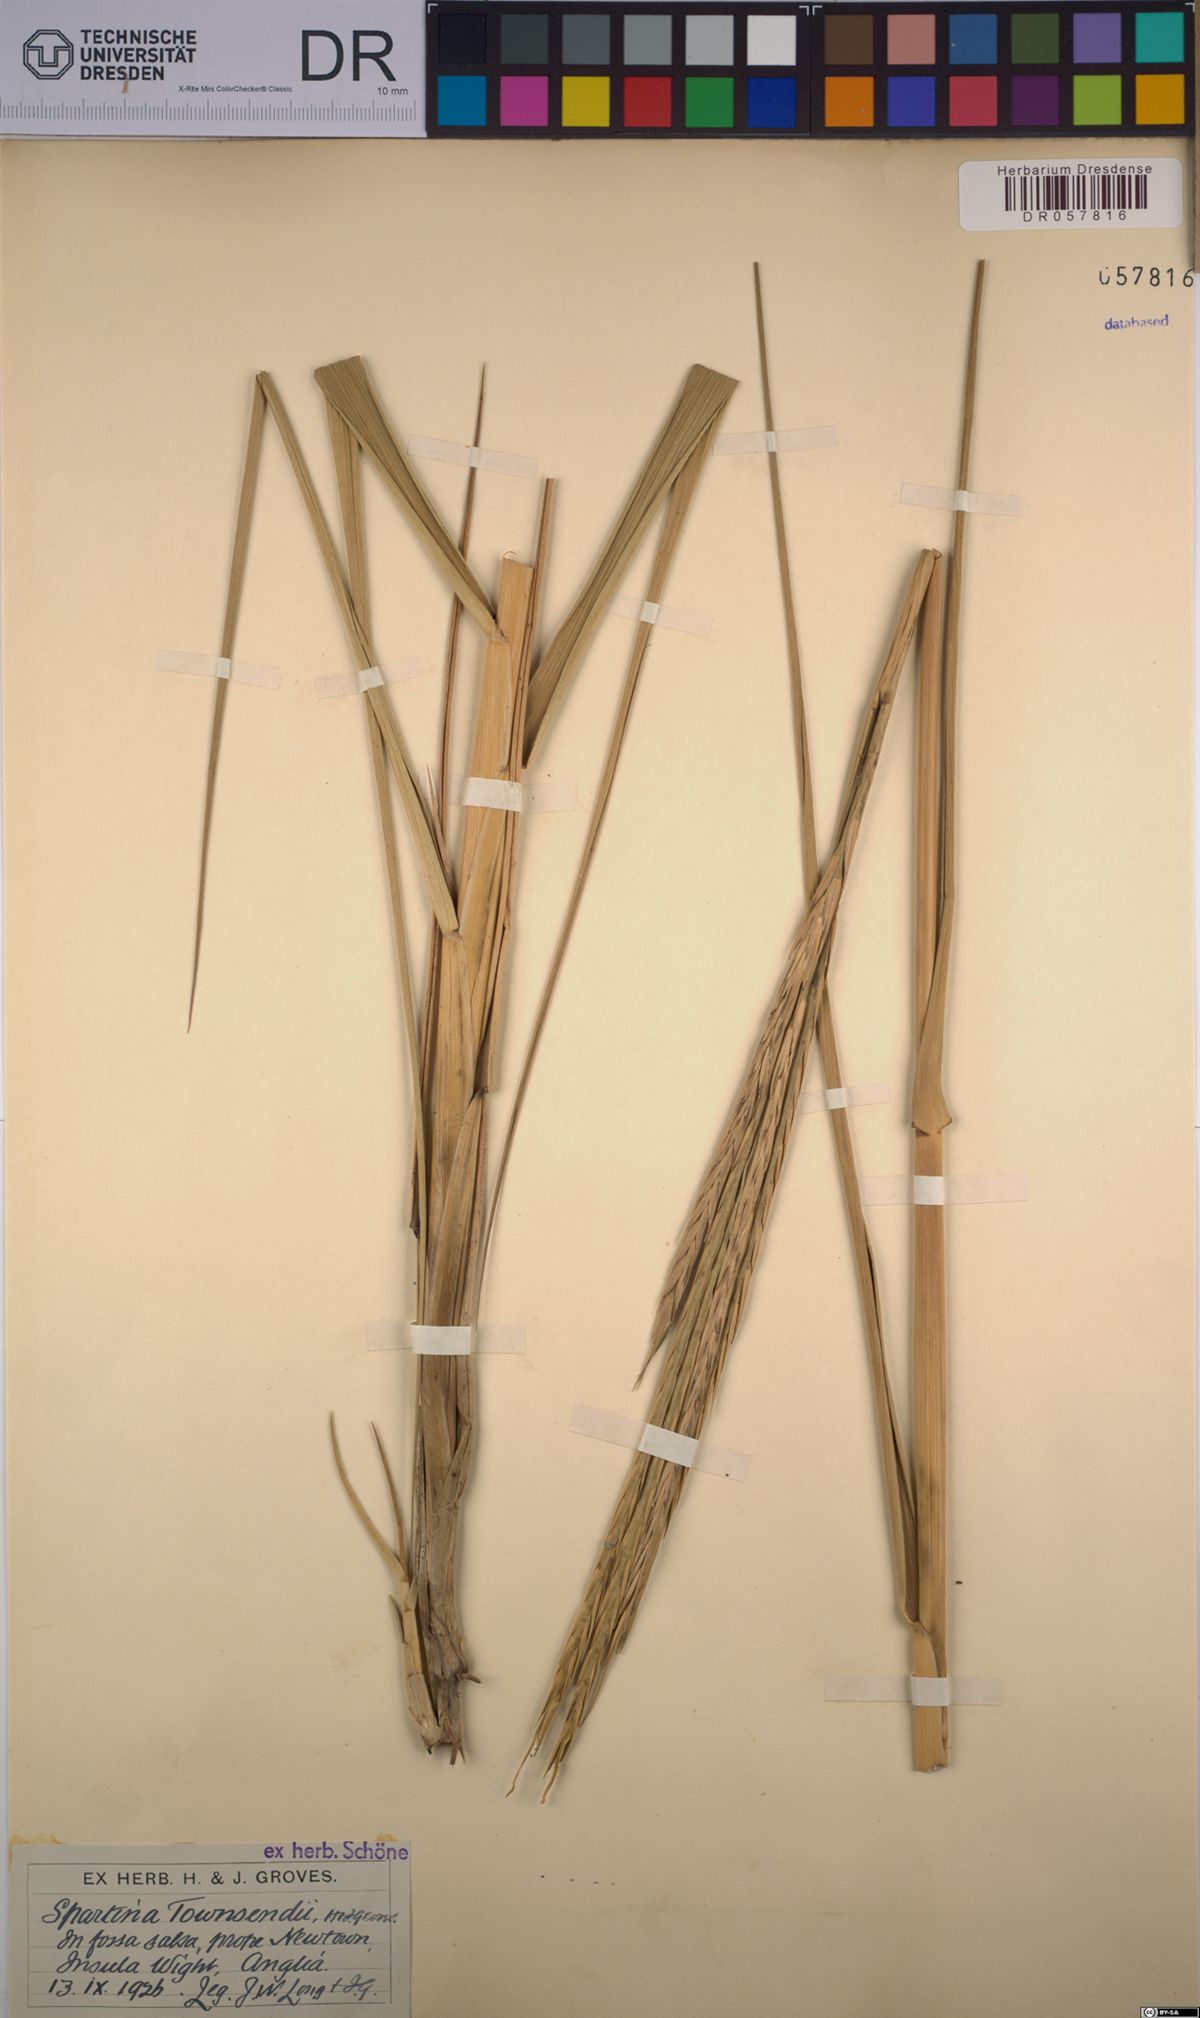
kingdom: Plantae
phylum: Tracheophyta
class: Liliopsida
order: Poales
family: Poaceae
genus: Sporobolus
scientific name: Sporobolus townsendii
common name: Townsend's cordgrass
